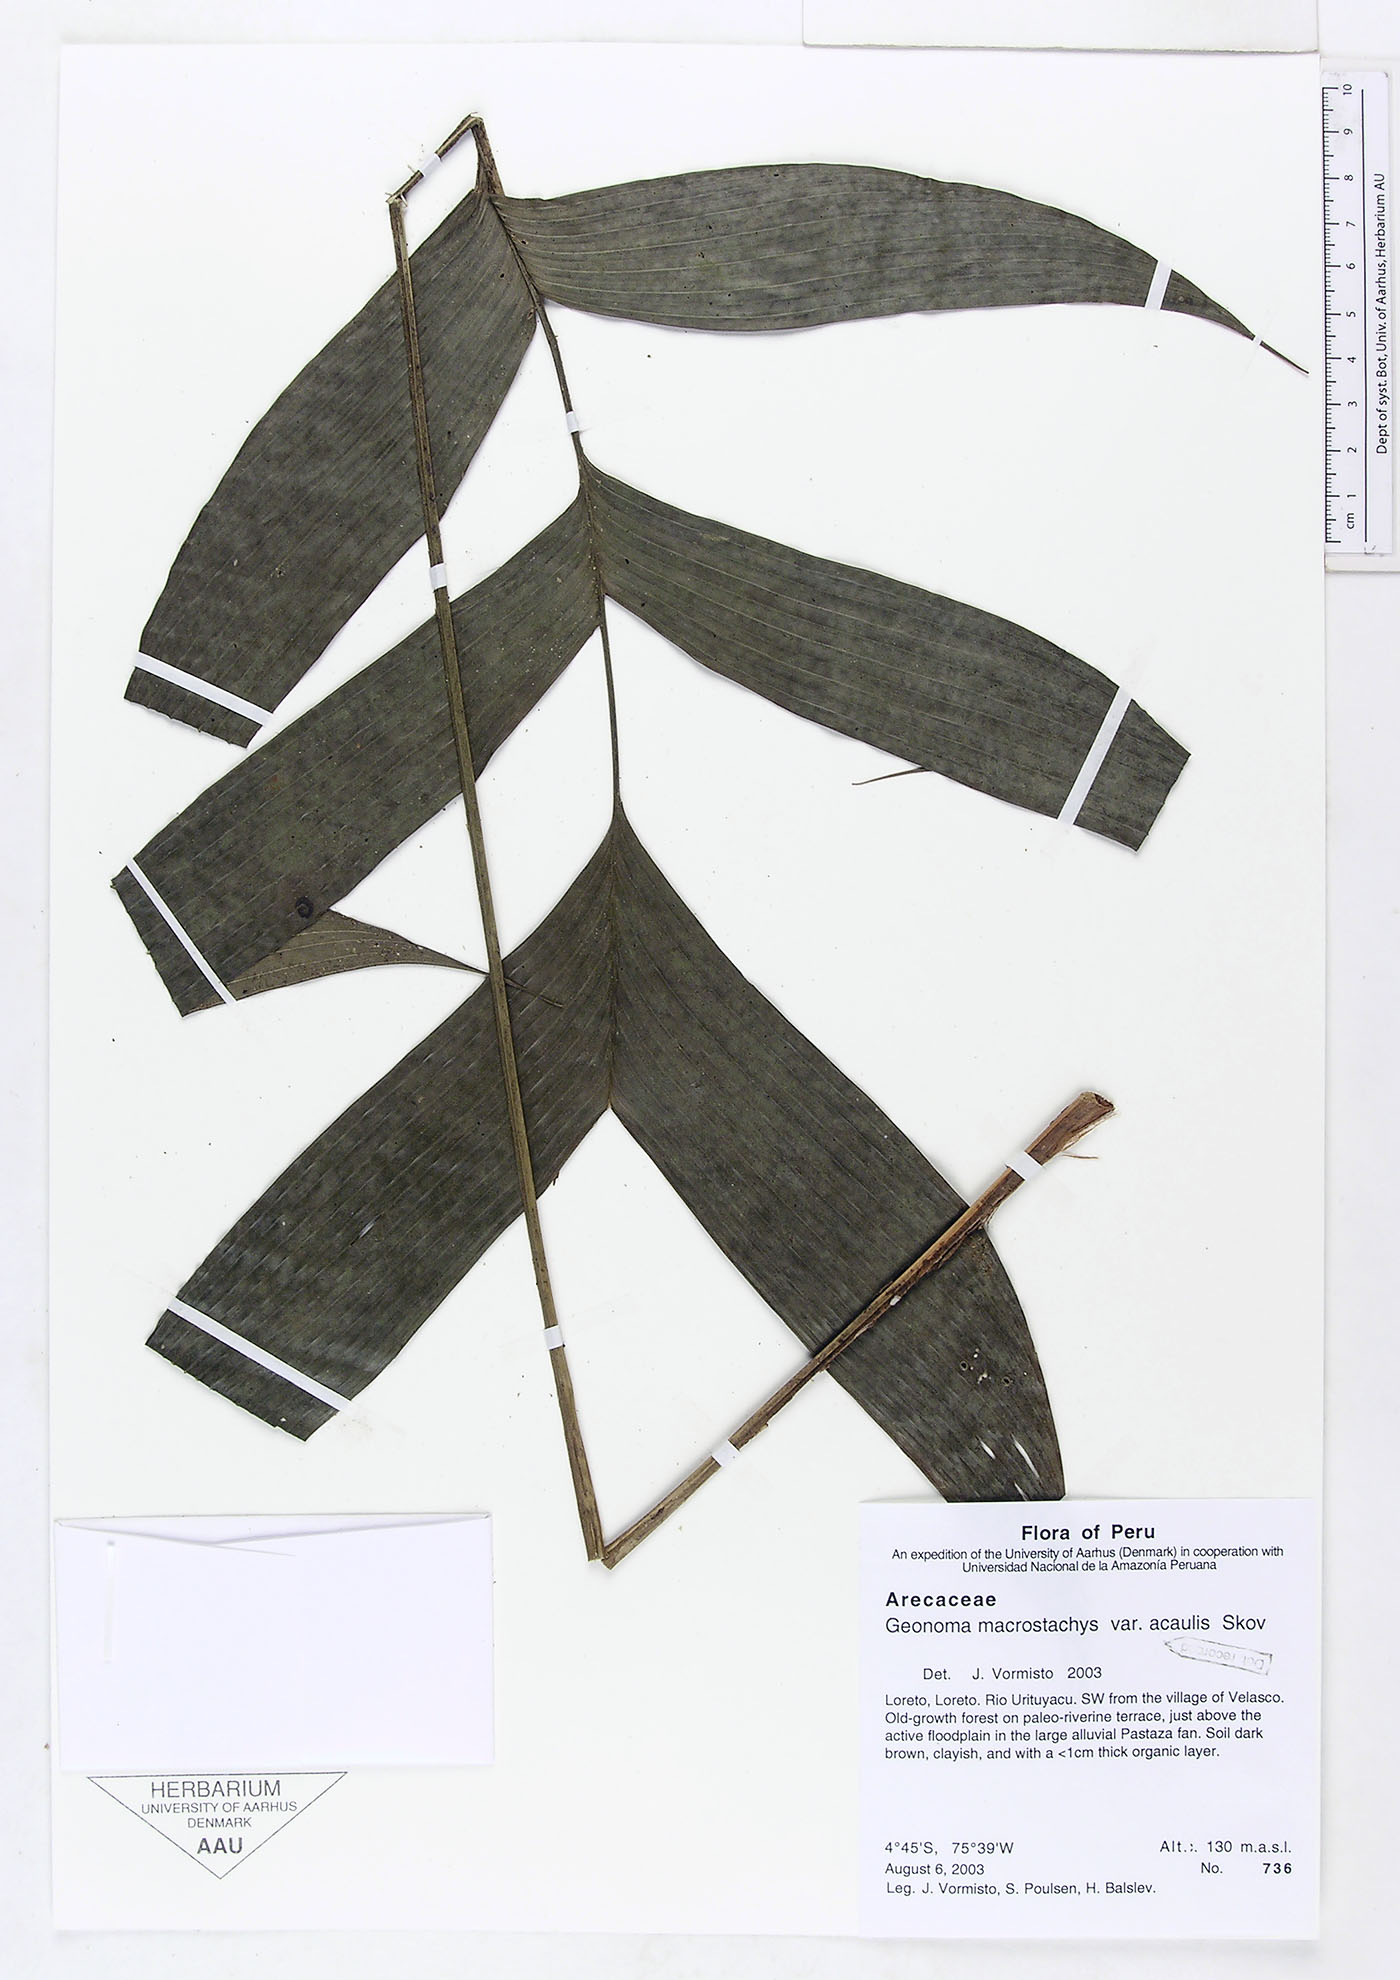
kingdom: Plantae
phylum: Tracheophyta
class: Liliopsida
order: Arecales
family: Arecaceae
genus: Geonoma
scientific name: Geonoma macrostachys
